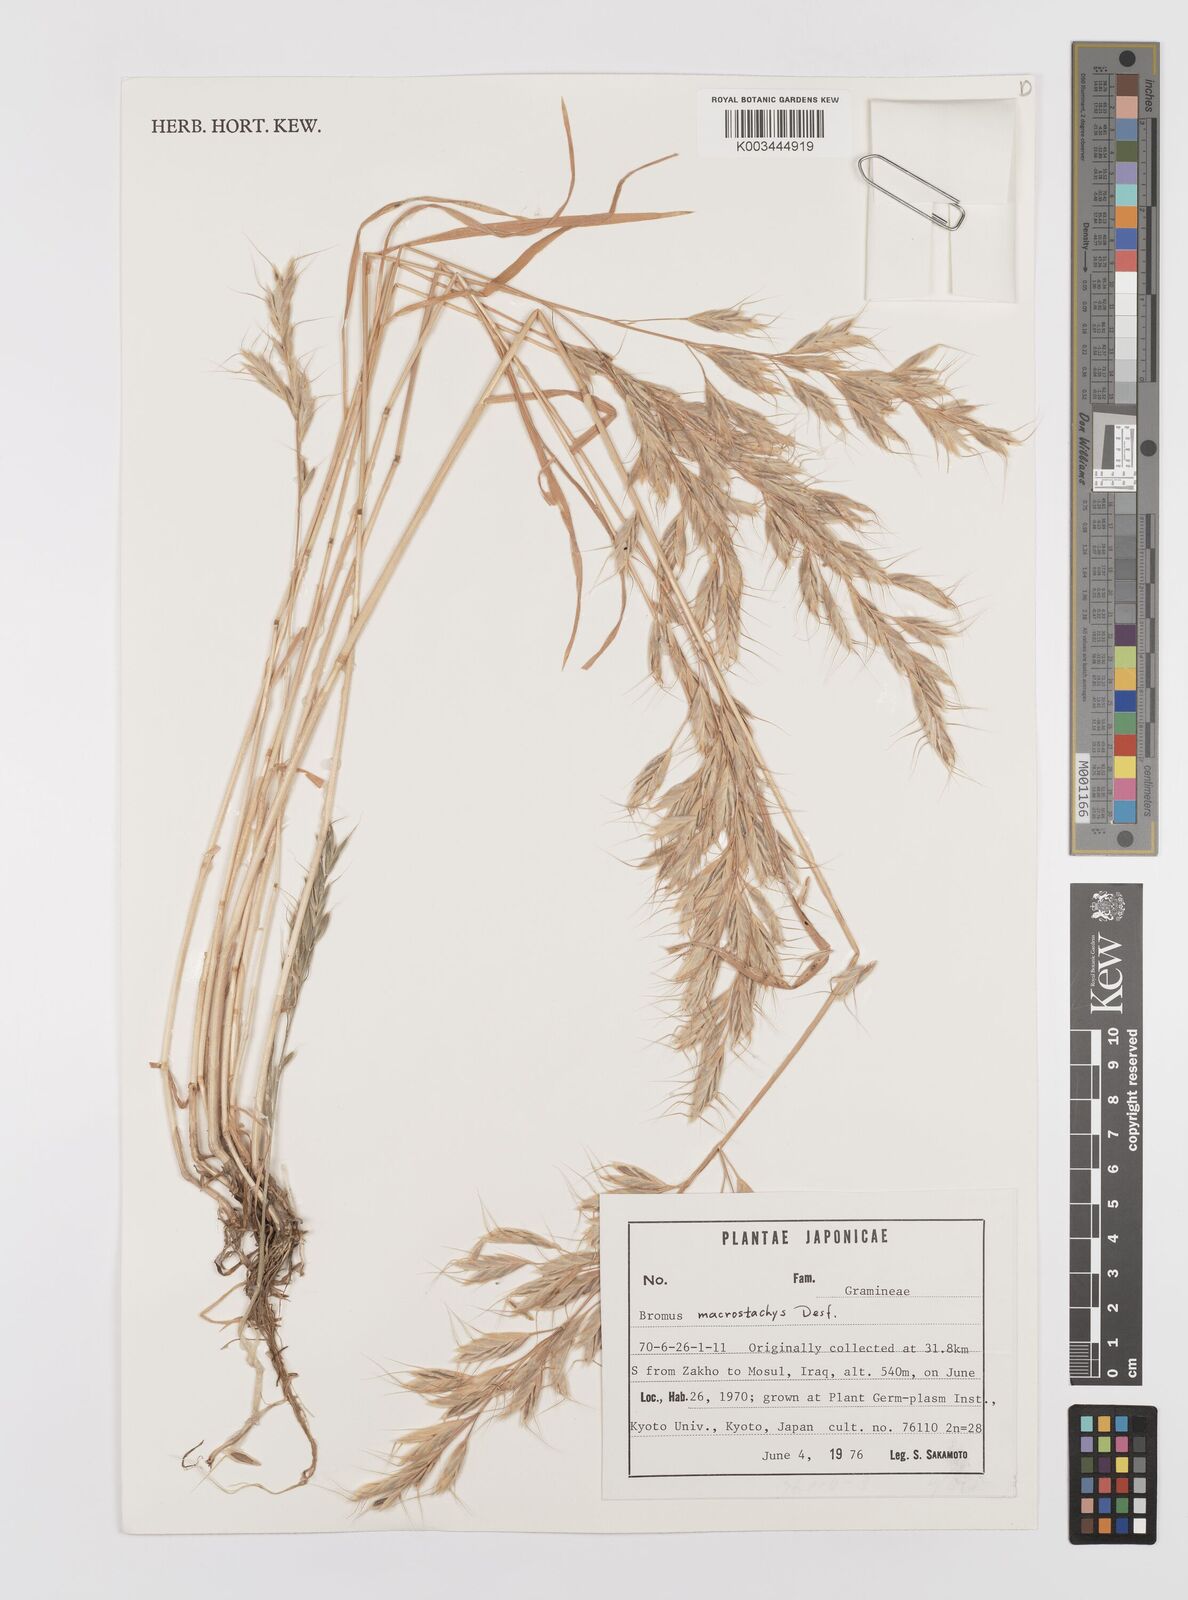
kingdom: Plantae
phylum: Tracheophyta
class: Liliopsida
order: Poales
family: Poaceae
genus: Bromus
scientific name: Bromus lanceolatus
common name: Mediterranean brome
